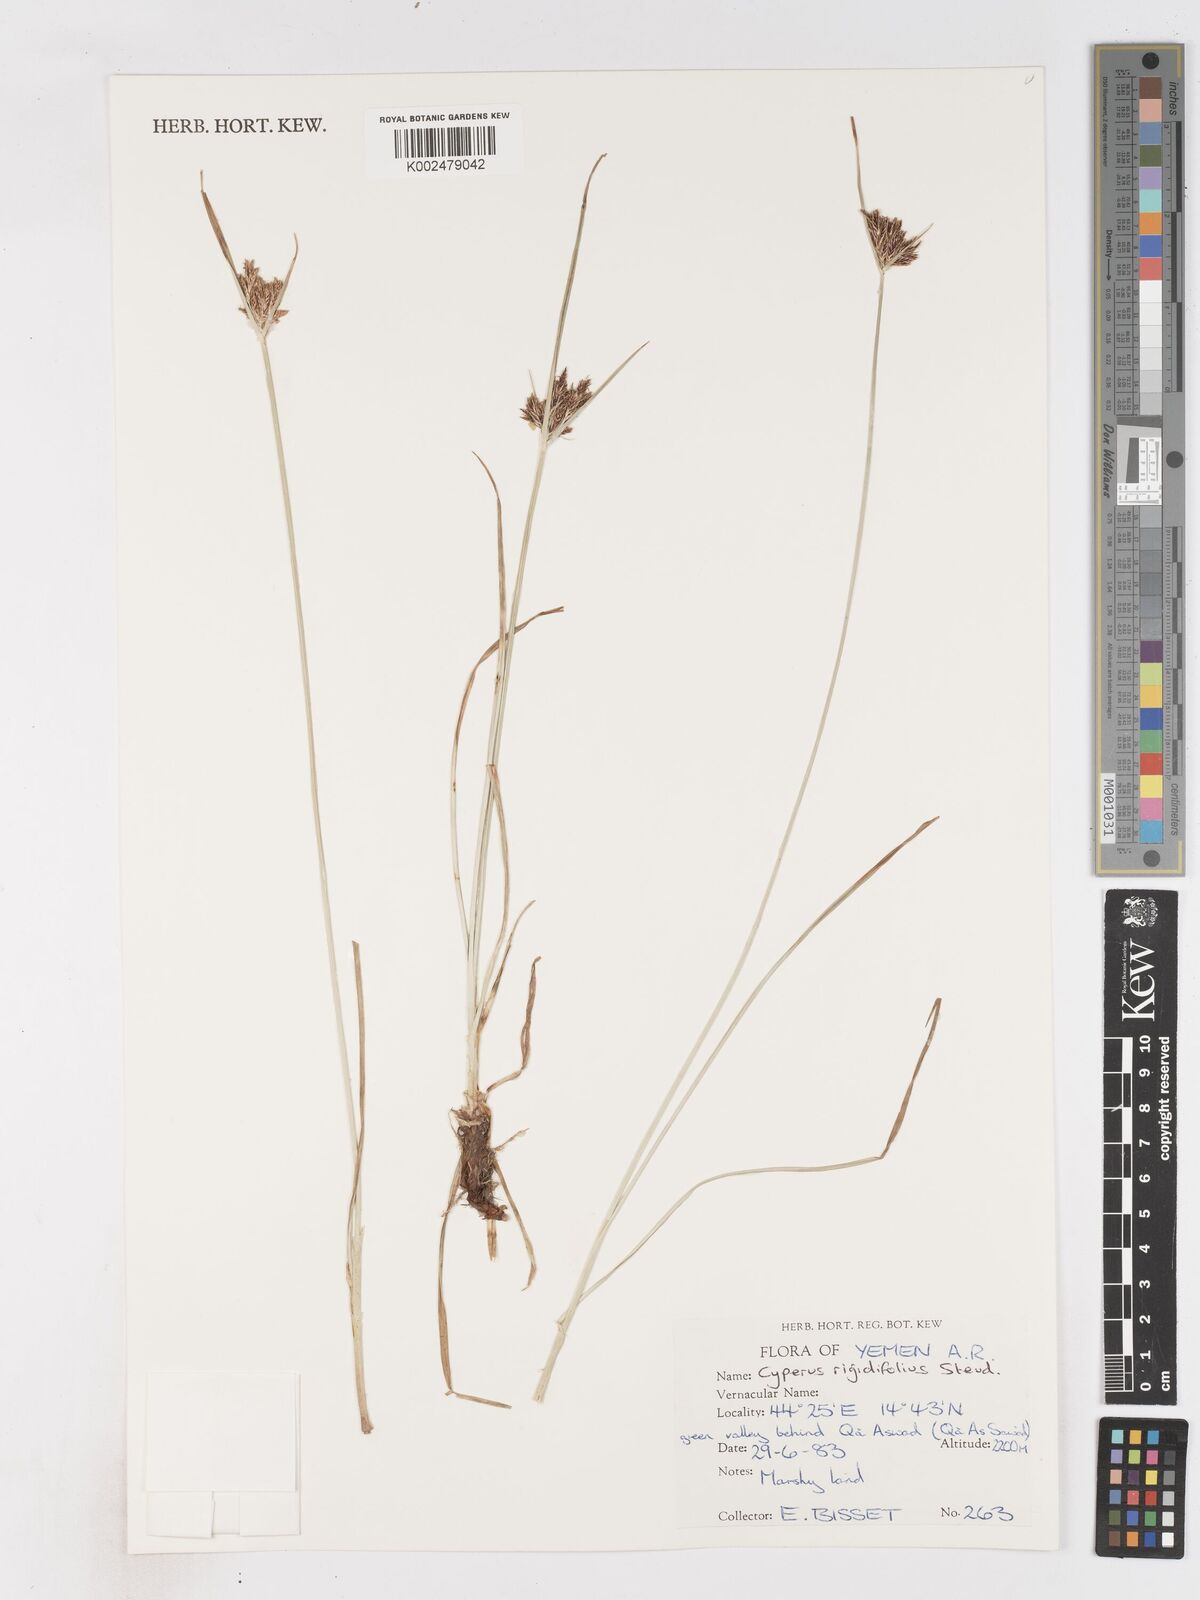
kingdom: Plantae
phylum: Tracheophyta
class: Liliopsida
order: Poales
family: Cyperaceae
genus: Cyperus
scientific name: Cyperus rigidifolius
